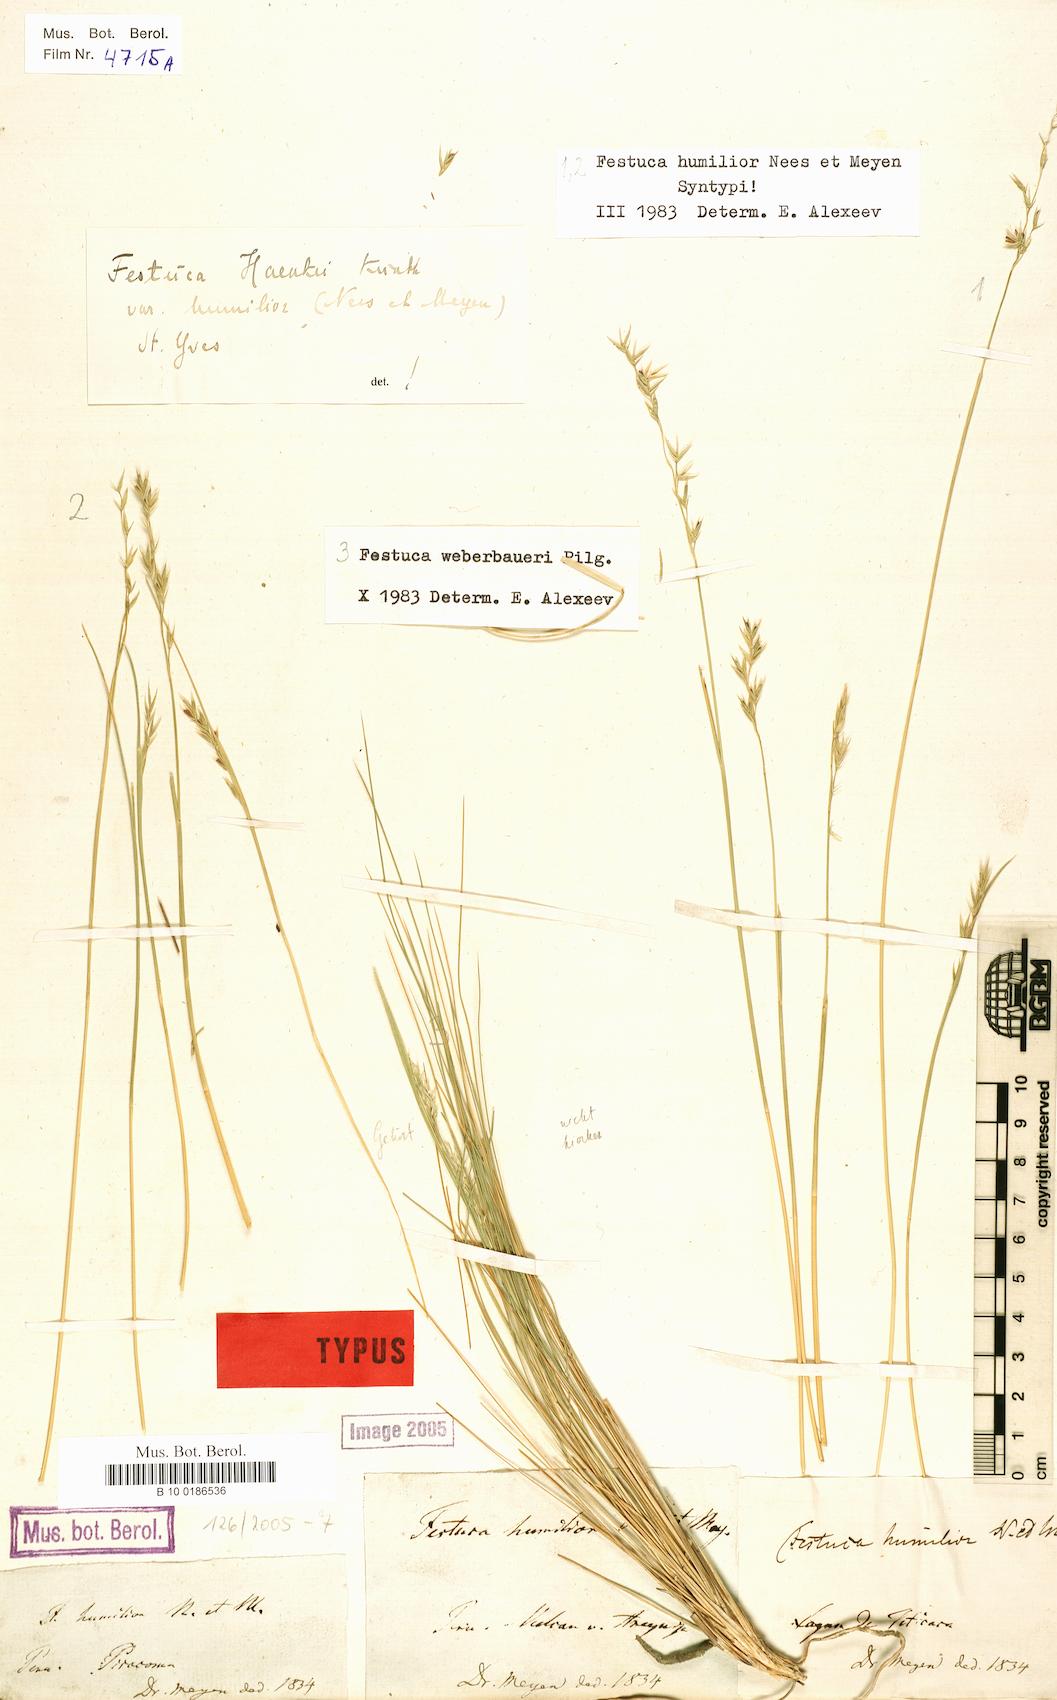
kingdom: Plantae
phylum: Tracheophyta
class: Liliopsida
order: Poales
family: Poaceae
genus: Festuca
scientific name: Festuca humilior
